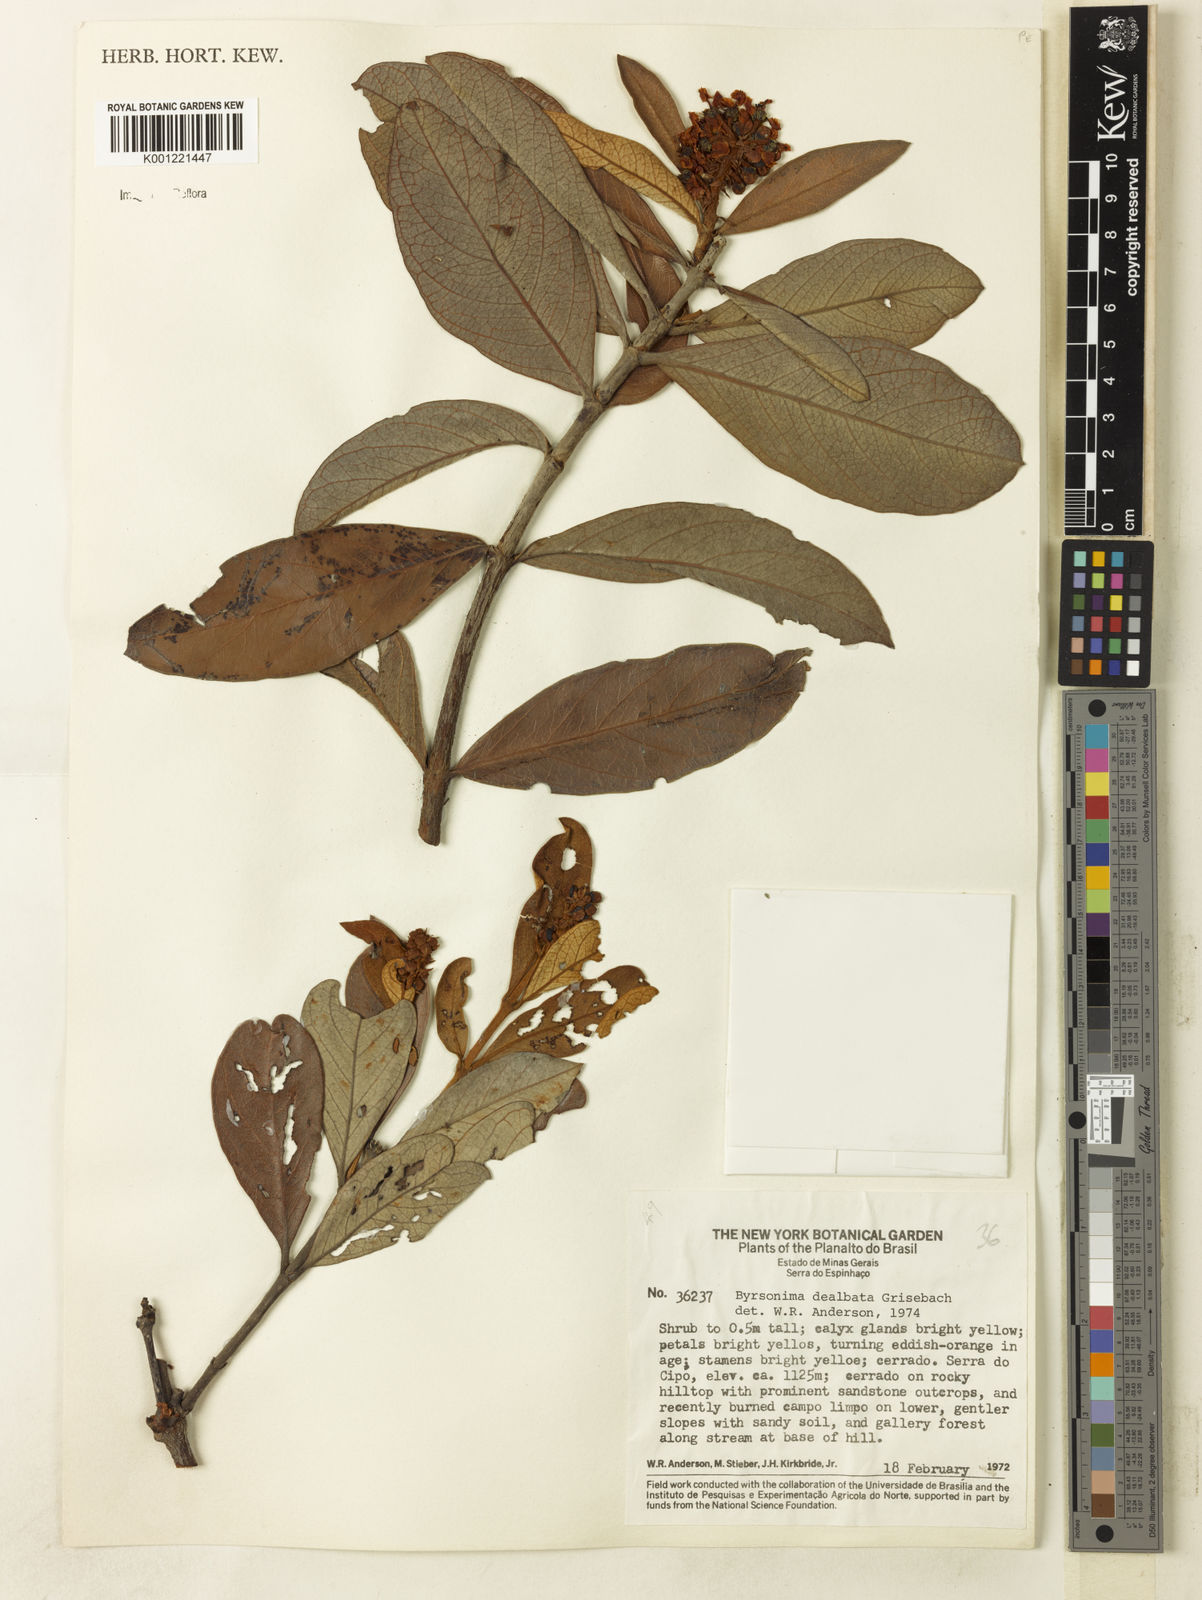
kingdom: Plantae
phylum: Tracheophyta
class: Magnoliopsida
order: Malpighiales
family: Malpighiaceae
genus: Byrsonima
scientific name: Byrsonima dealbata
